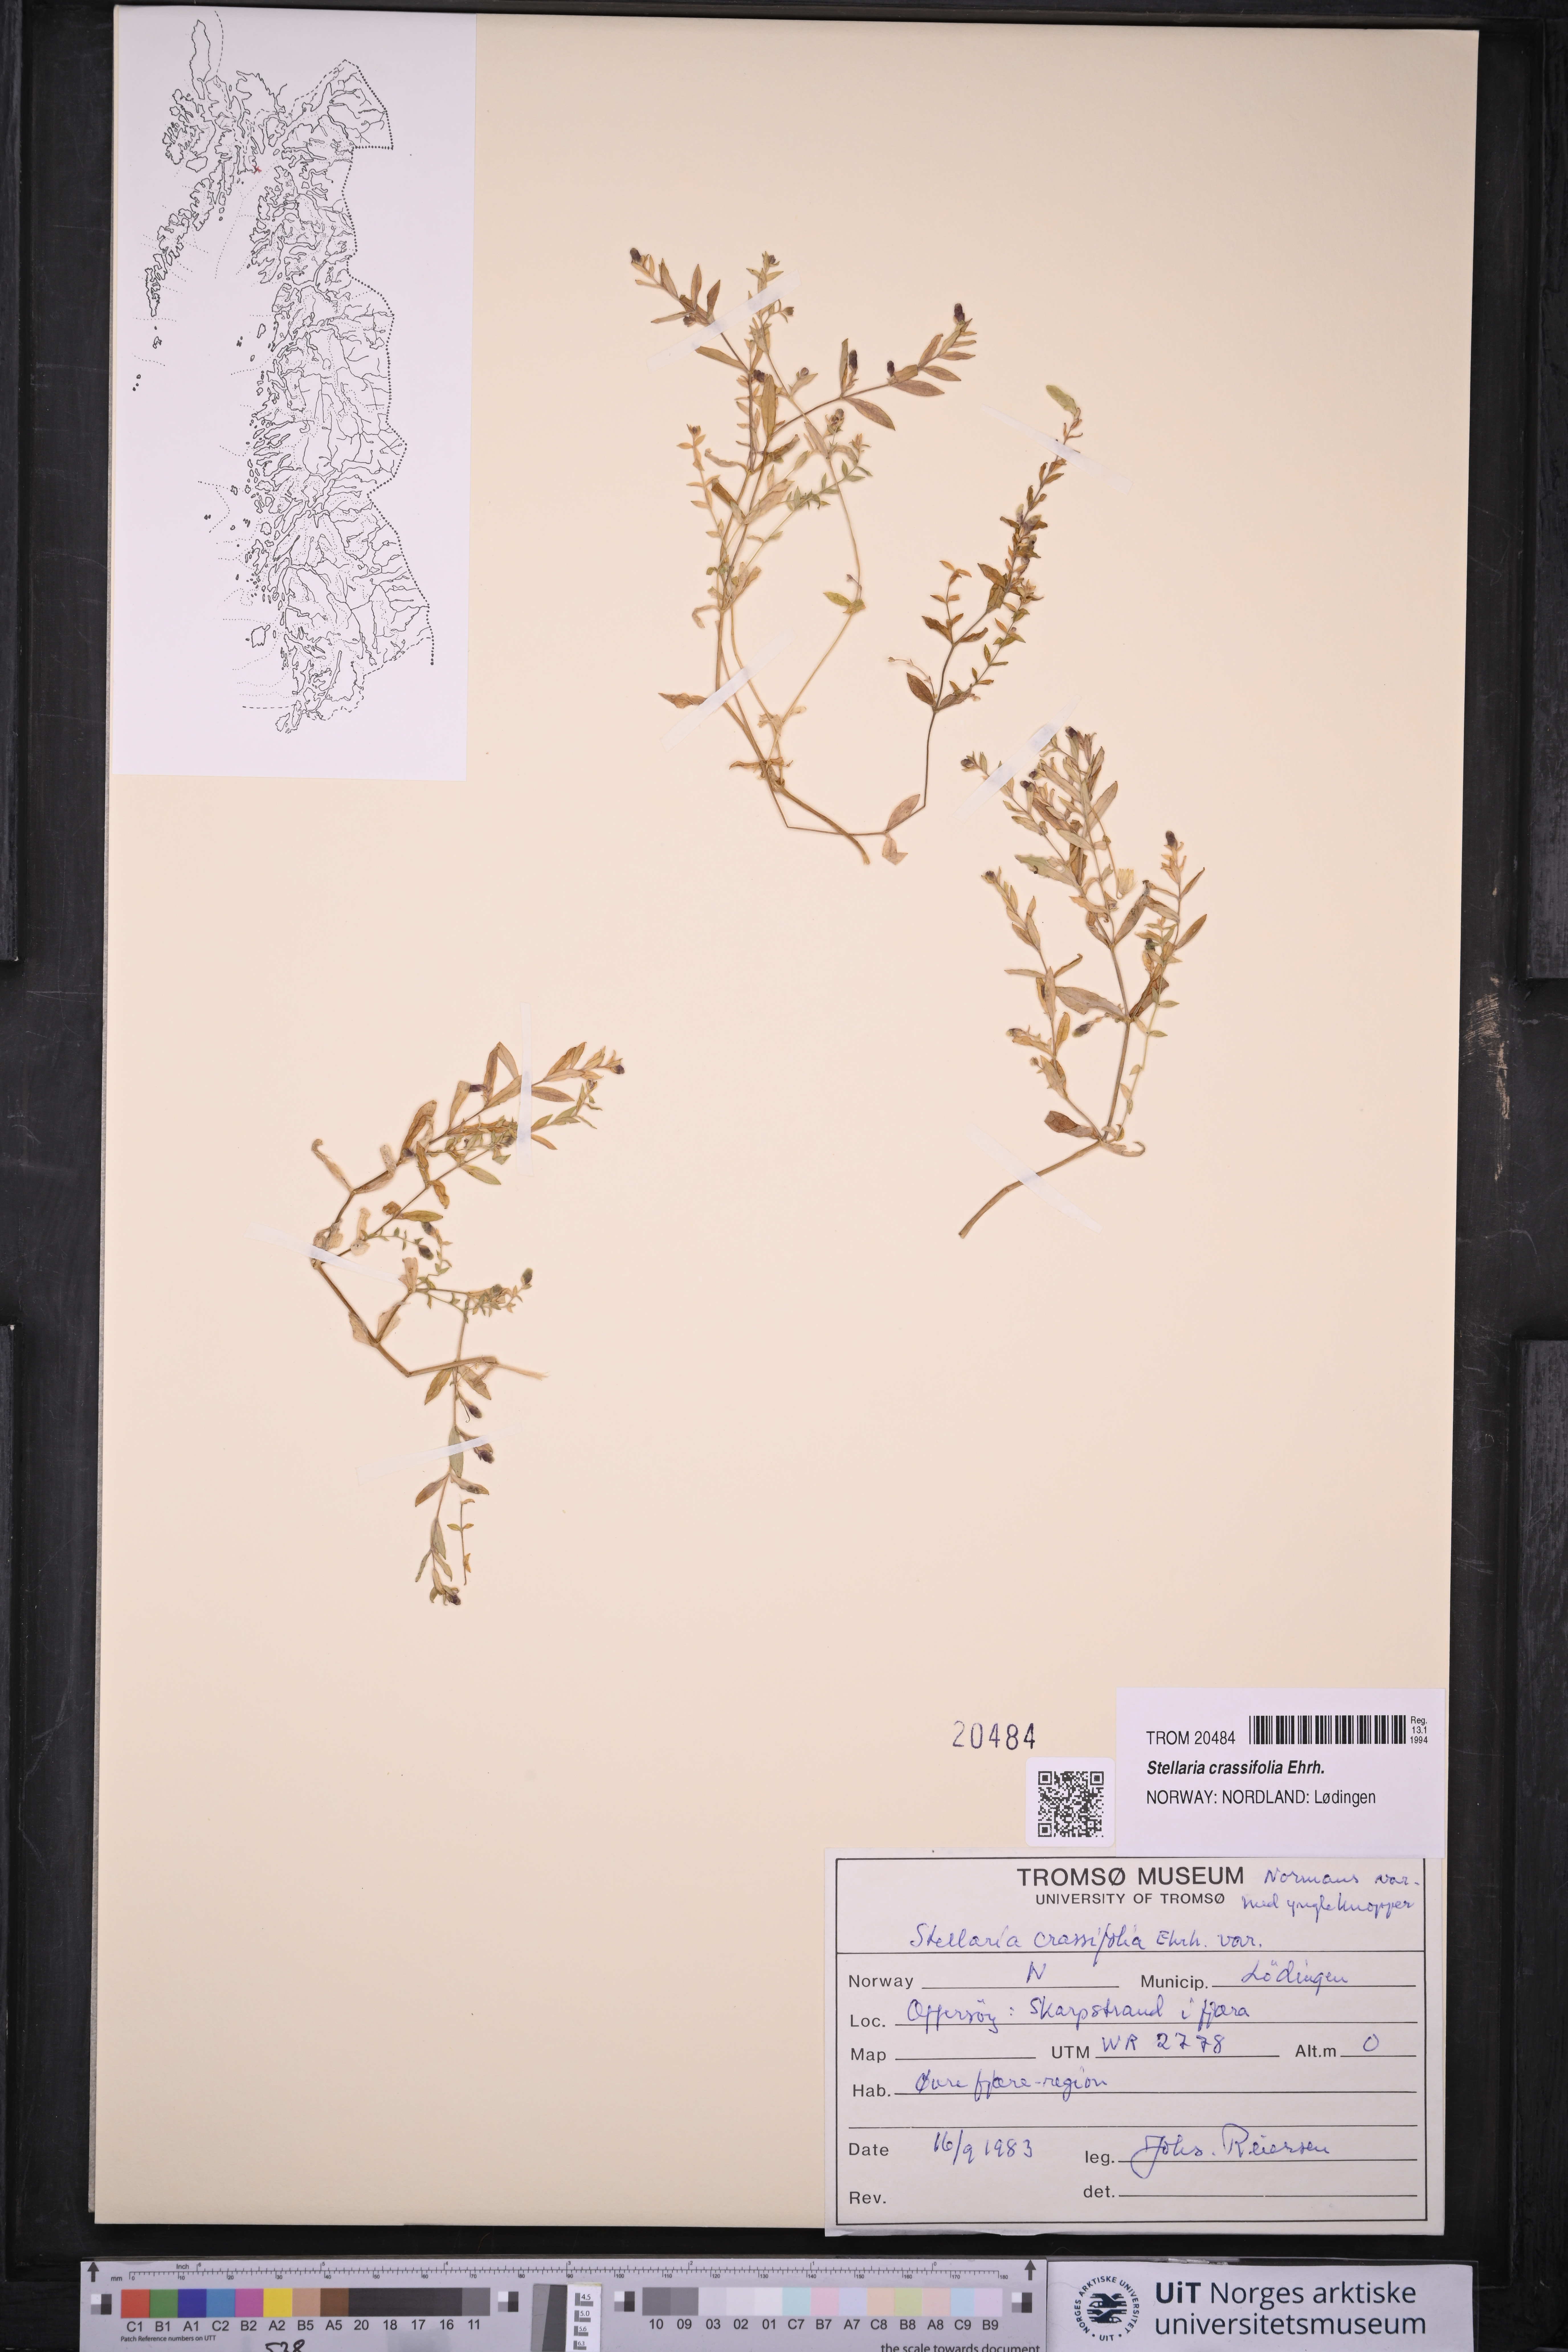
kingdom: Plantae
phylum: Tracheophyta
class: Magnoliopsida
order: Caryophyllales
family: Caryophyllaceae
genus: Stellaria
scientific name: Stellaria crassifolia
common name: Fleshy starwort
